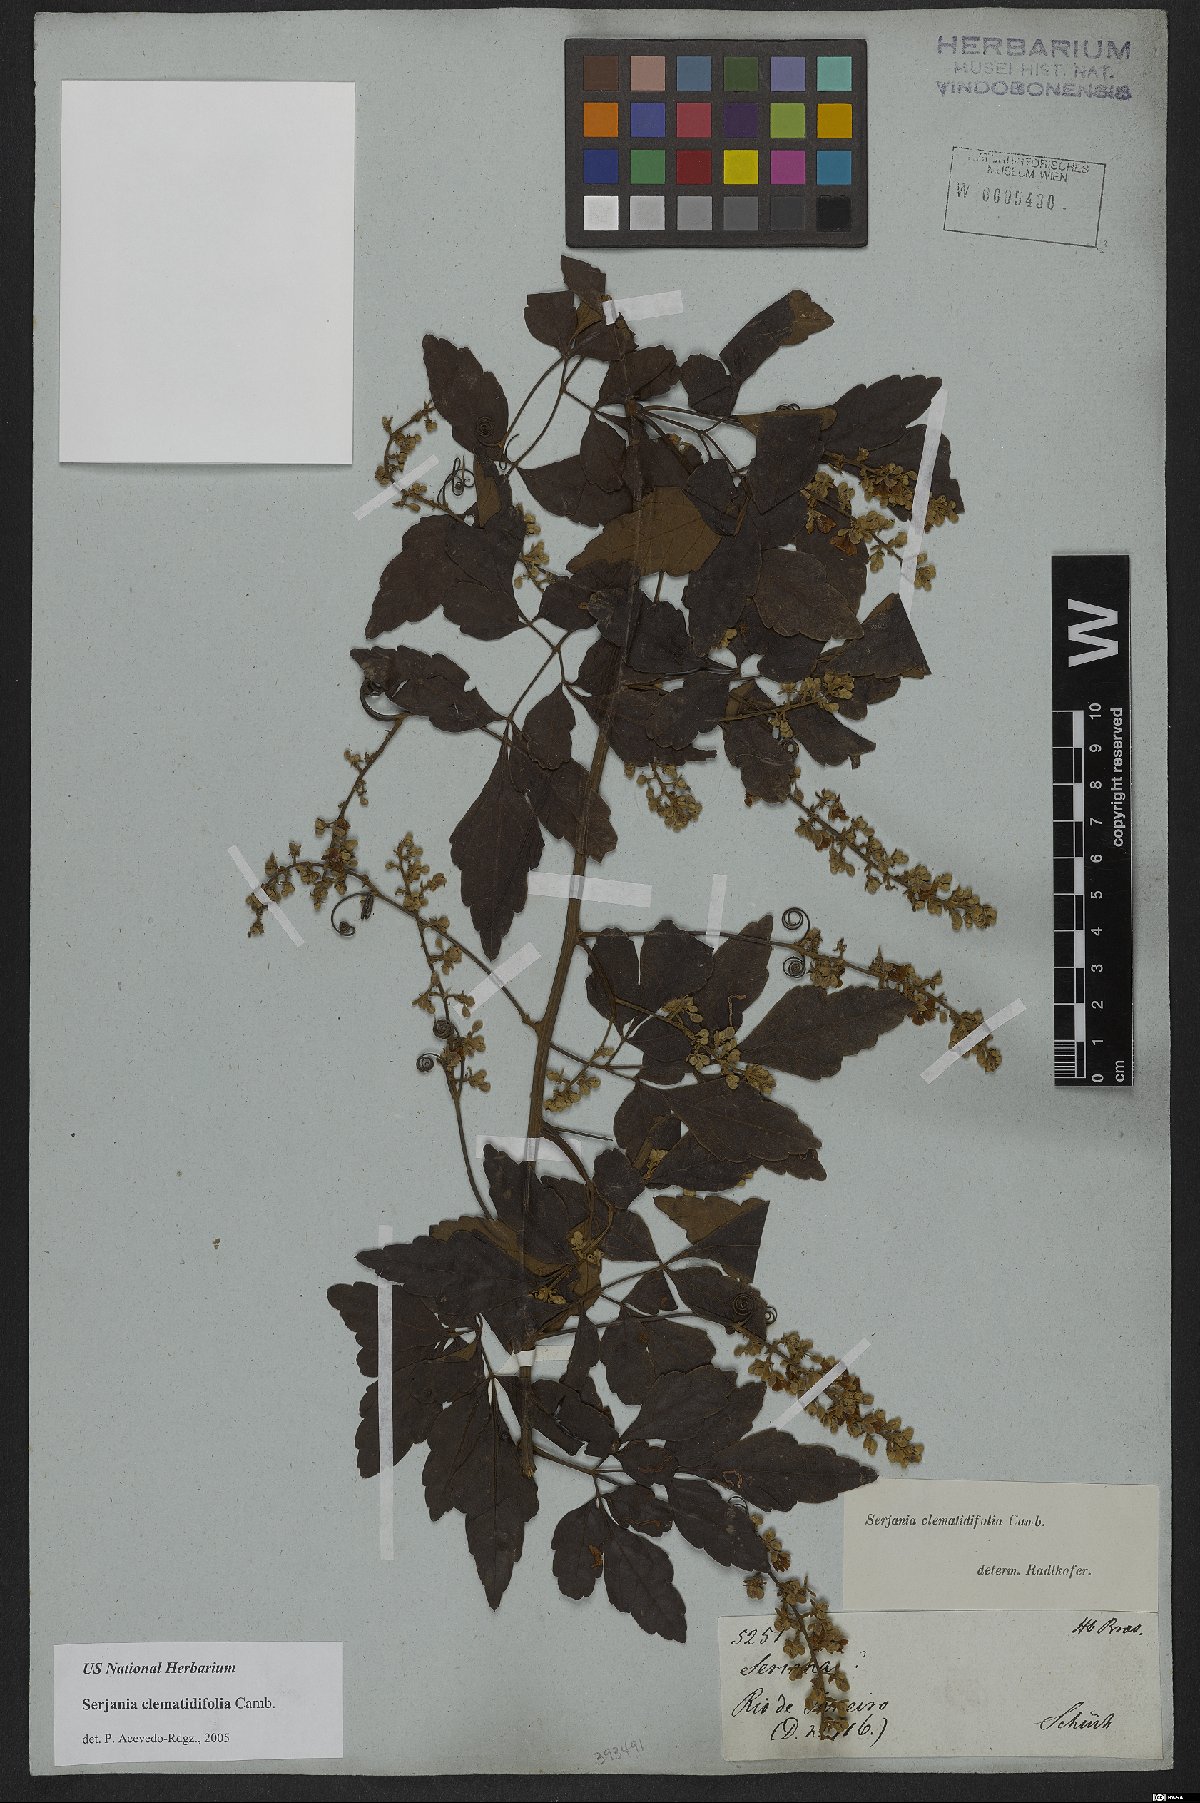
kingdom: Plantae
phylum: Tracheophyta
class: Magnoliopsida
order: Sapindales
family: Sapindaceae
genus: Serjania
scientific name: Serjania clematidifolia
